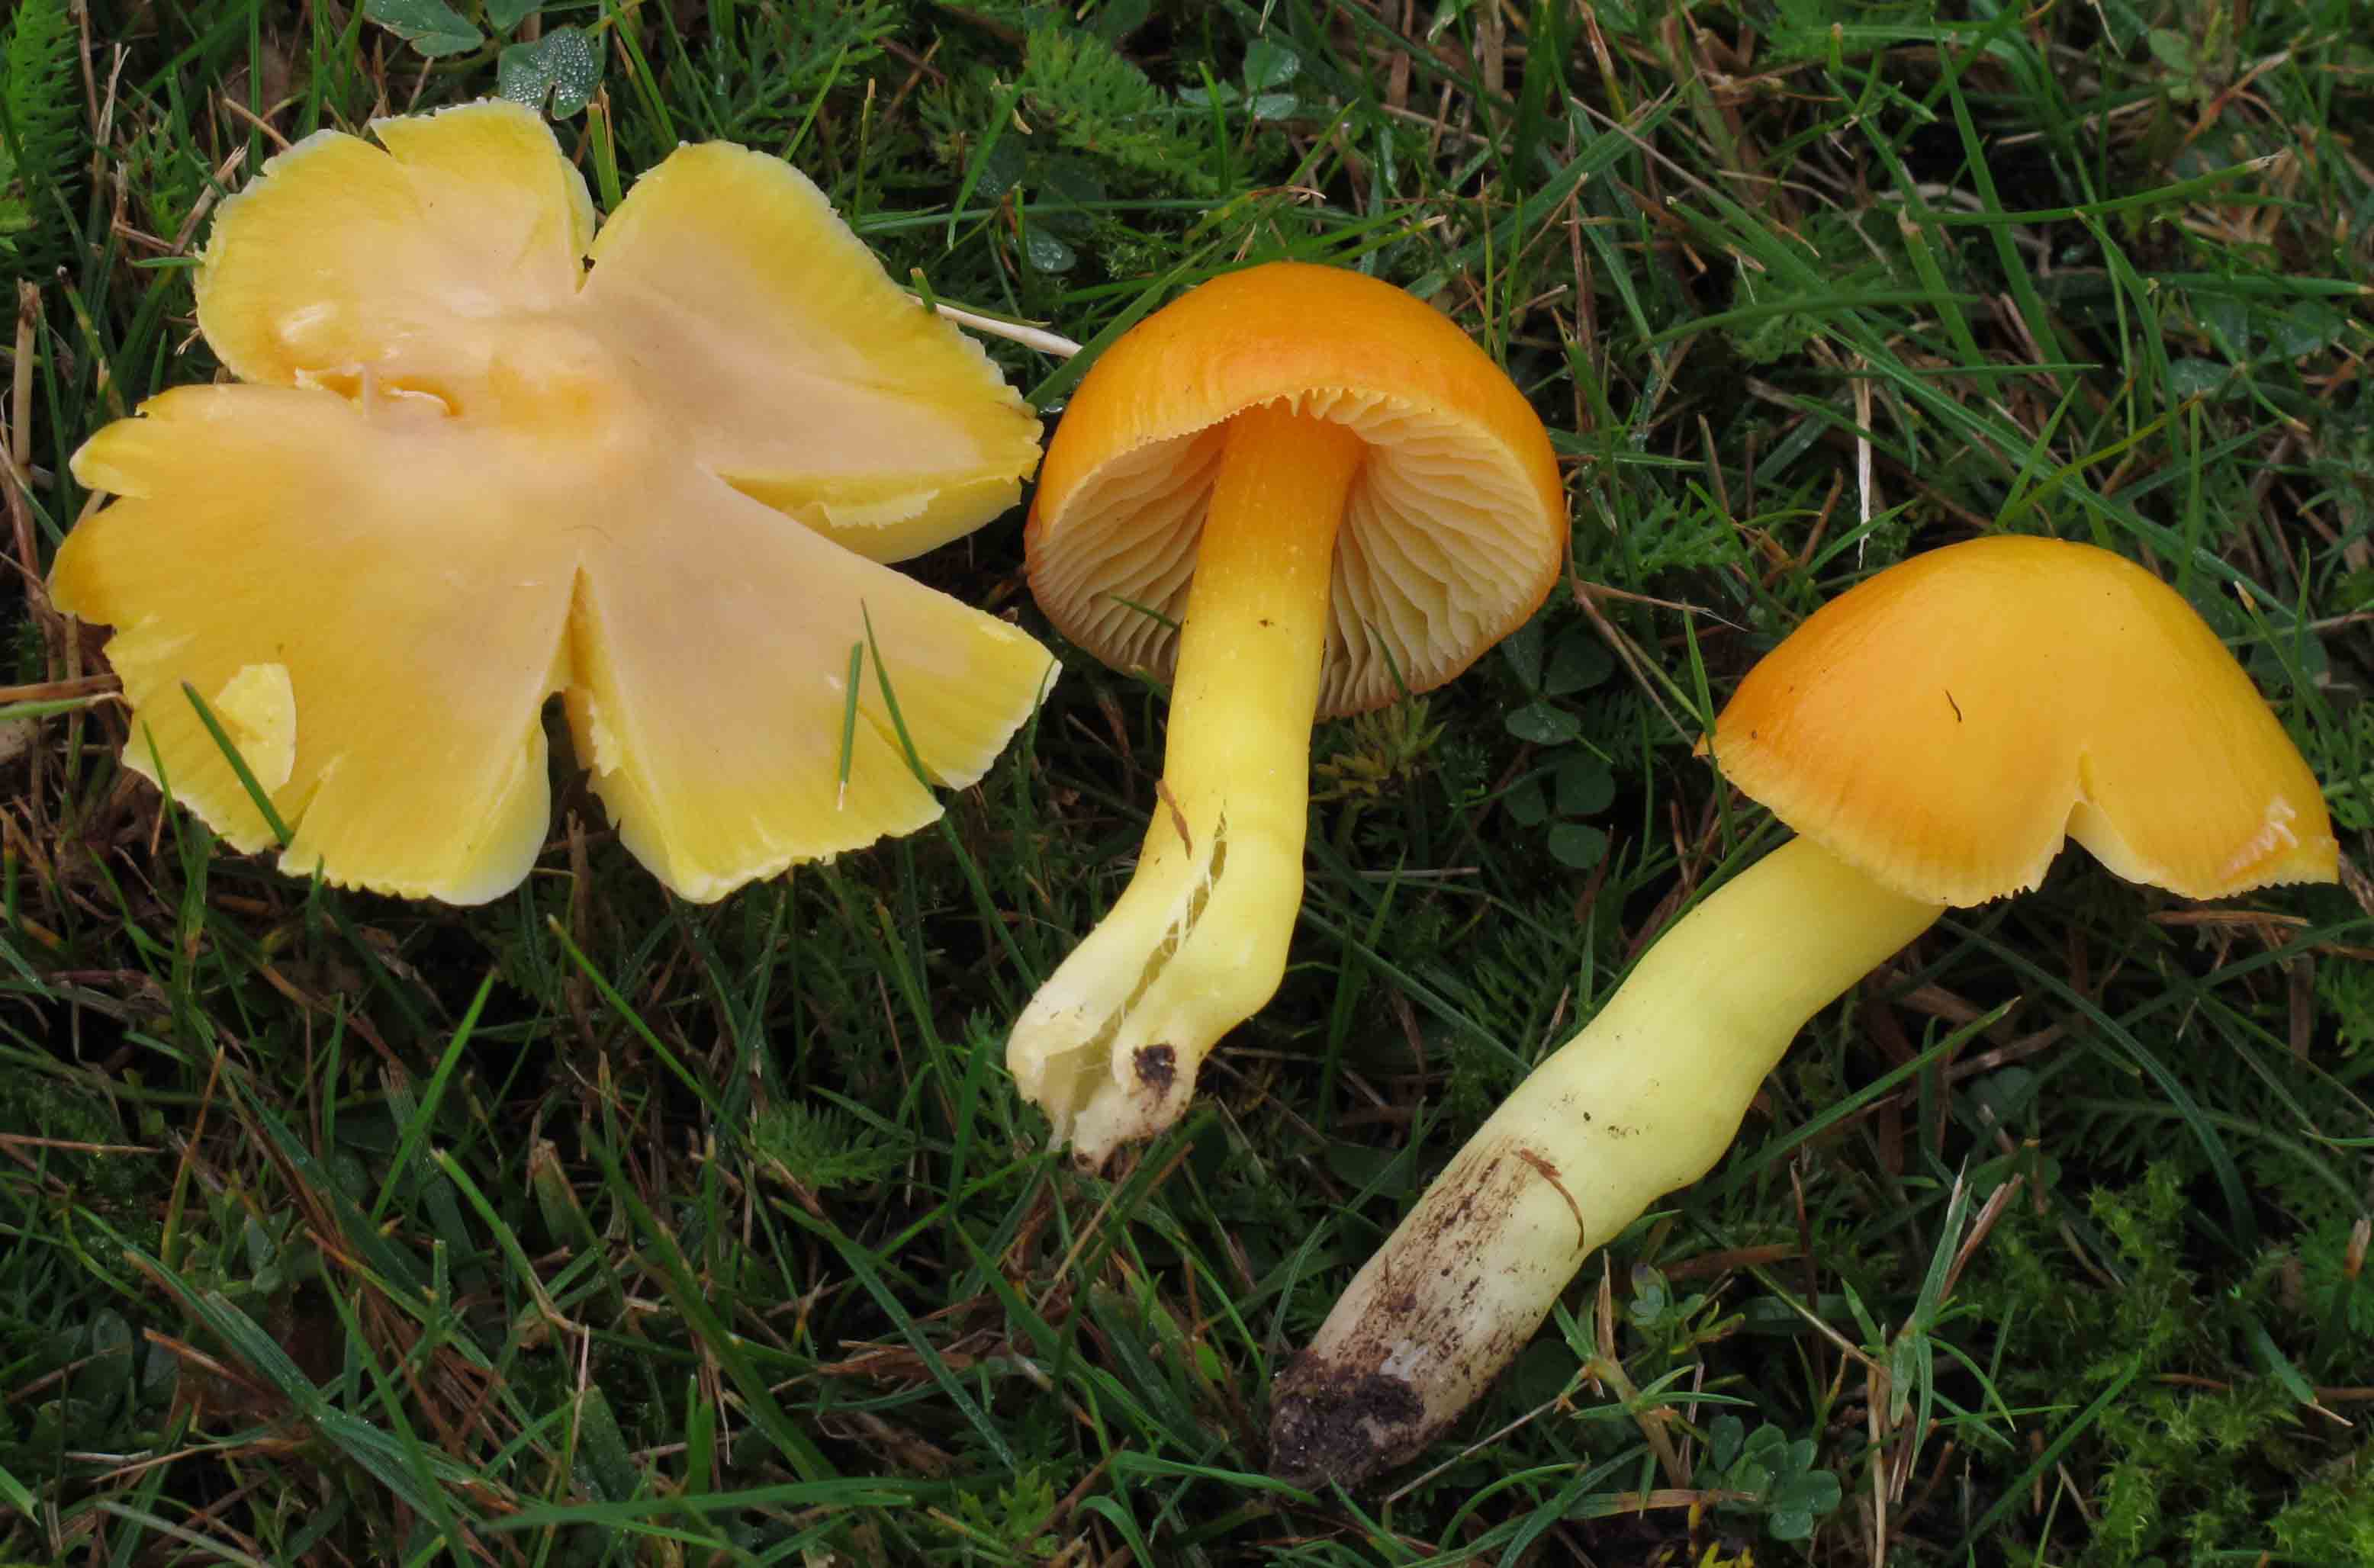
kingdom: Fungi
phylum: Basidiomycota
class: Agaricomycetes
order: Agaricales
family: Hygrophoraceae
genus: Hygrocybe
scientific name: Hygrocybe aurantiosplendens
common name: orangegylden vokshat
